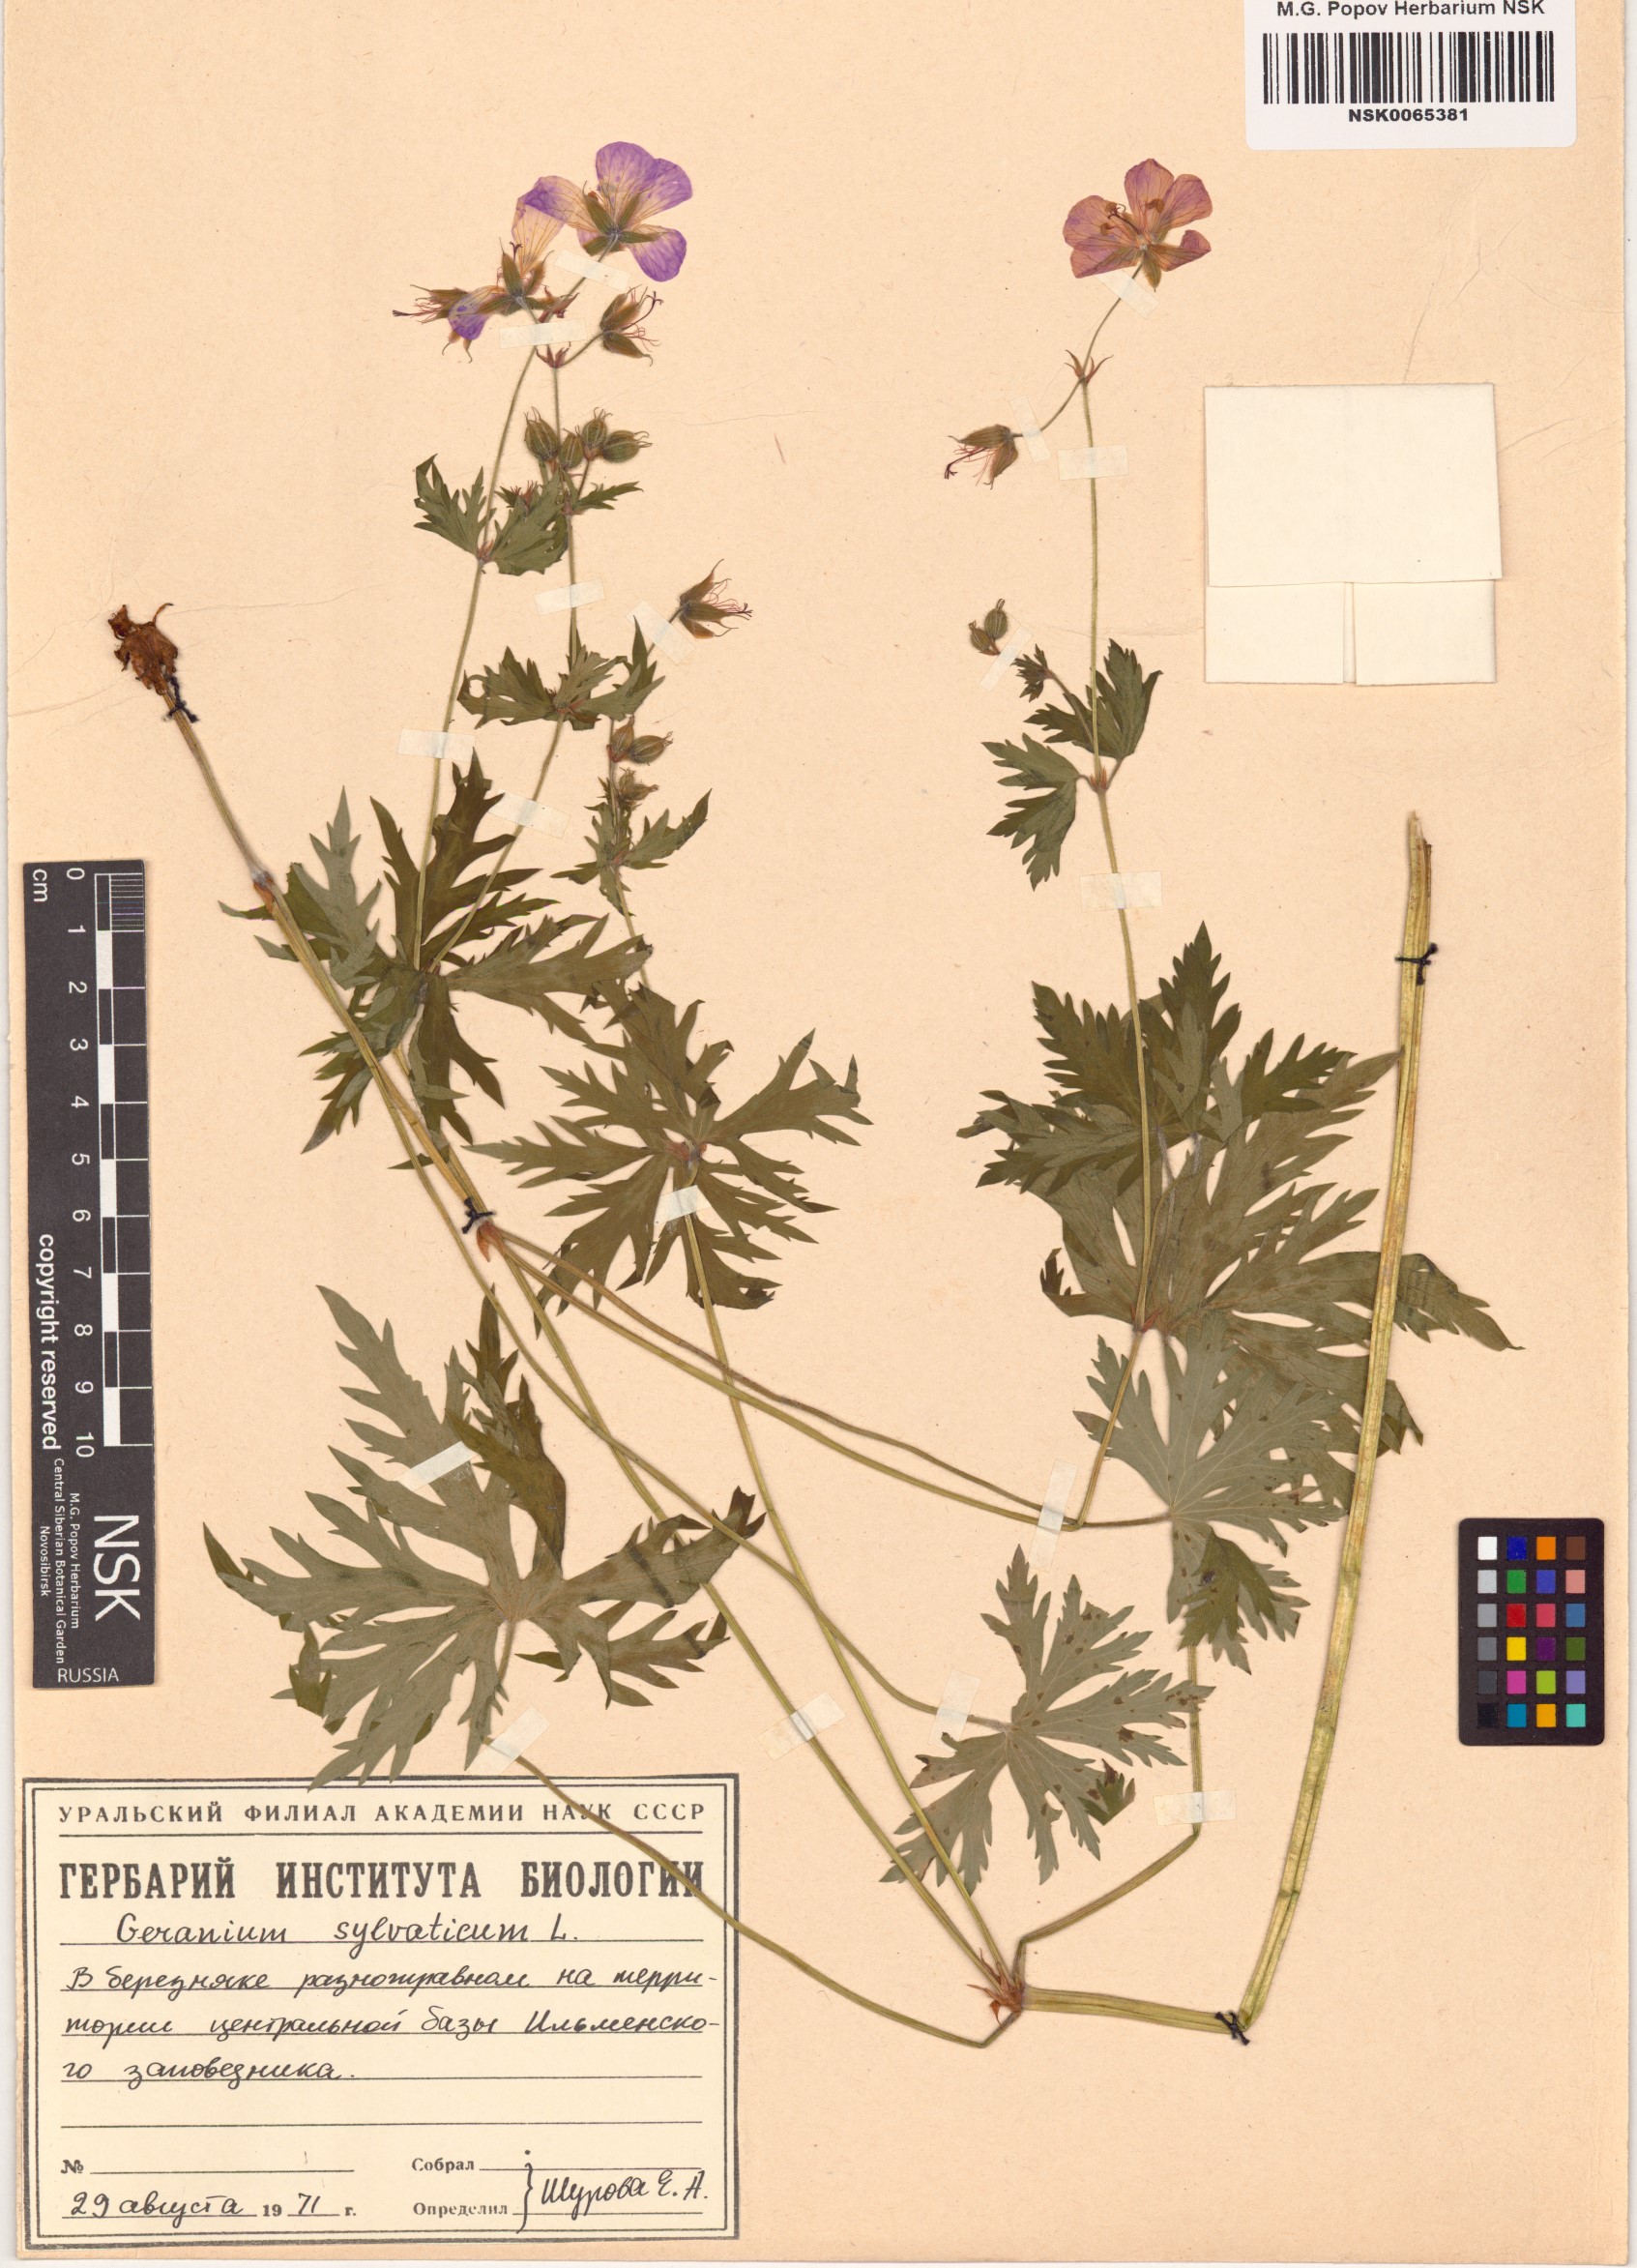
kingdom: Plantae
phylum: Tracheophyta
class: Magnoliopsida
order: Geraniales
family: Geraniaceae
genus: Geranium
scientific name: Geranium sylvaticum
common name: Wood crane's-bill
